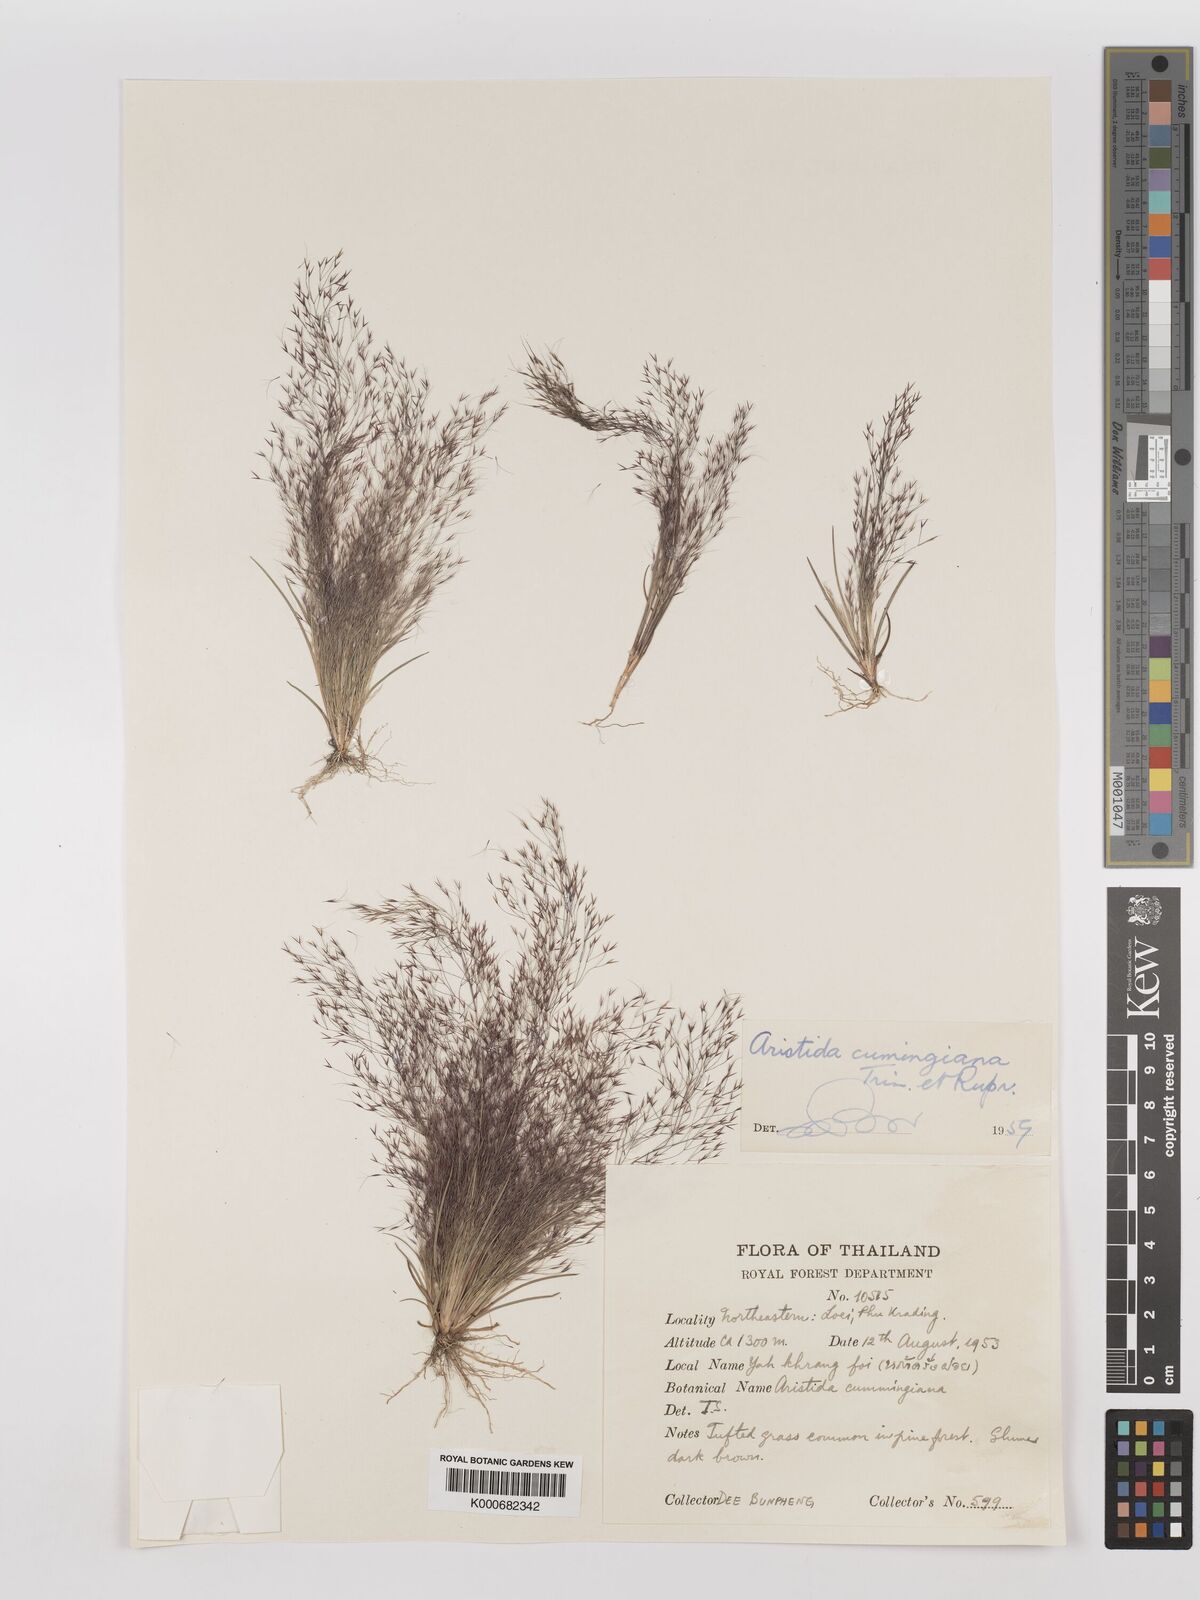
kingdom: Plantae
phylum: Tracheophyta
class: Liliopsida
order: Poales
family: Poaceae
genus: Aristida
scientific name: Aristida cumingiana
